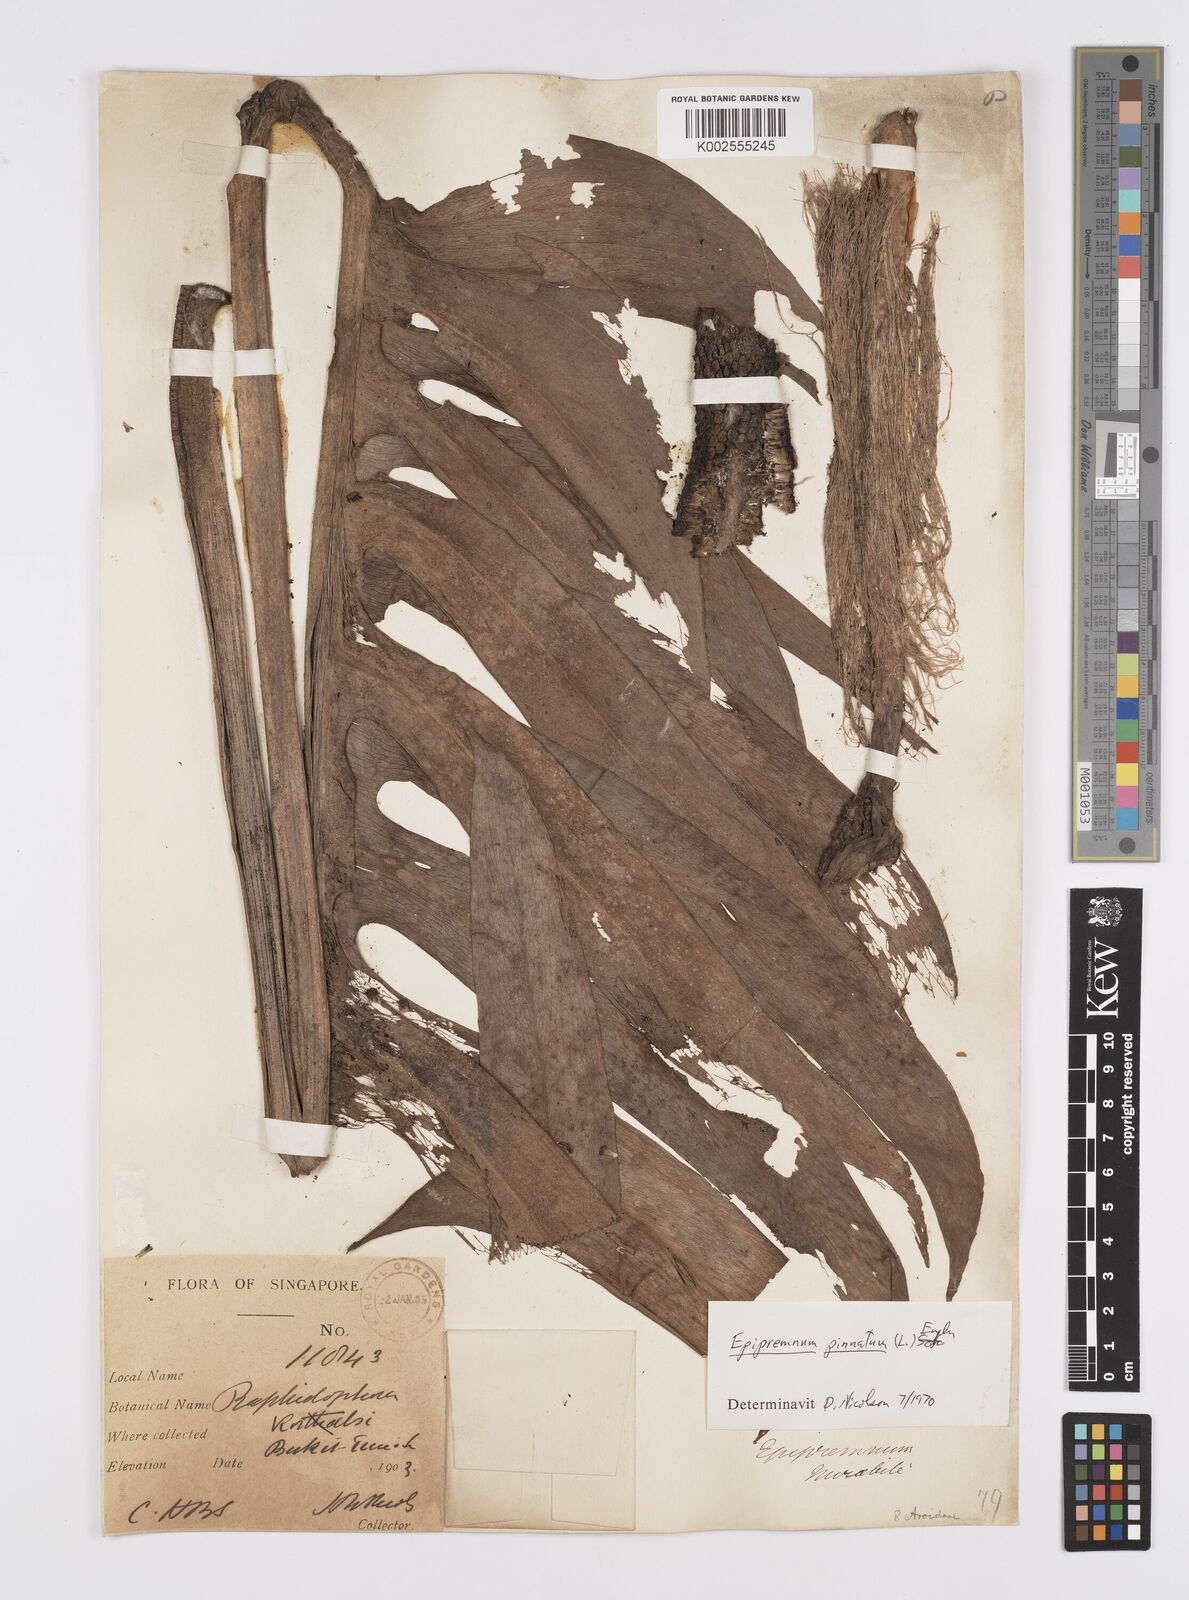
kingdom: Plantae
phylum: Tracheophyta
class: Liliopsida
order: Alismatales
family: Araceae
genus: Epipremnum
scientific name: Epipremnum pinnatum
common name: Centipede tongavine
